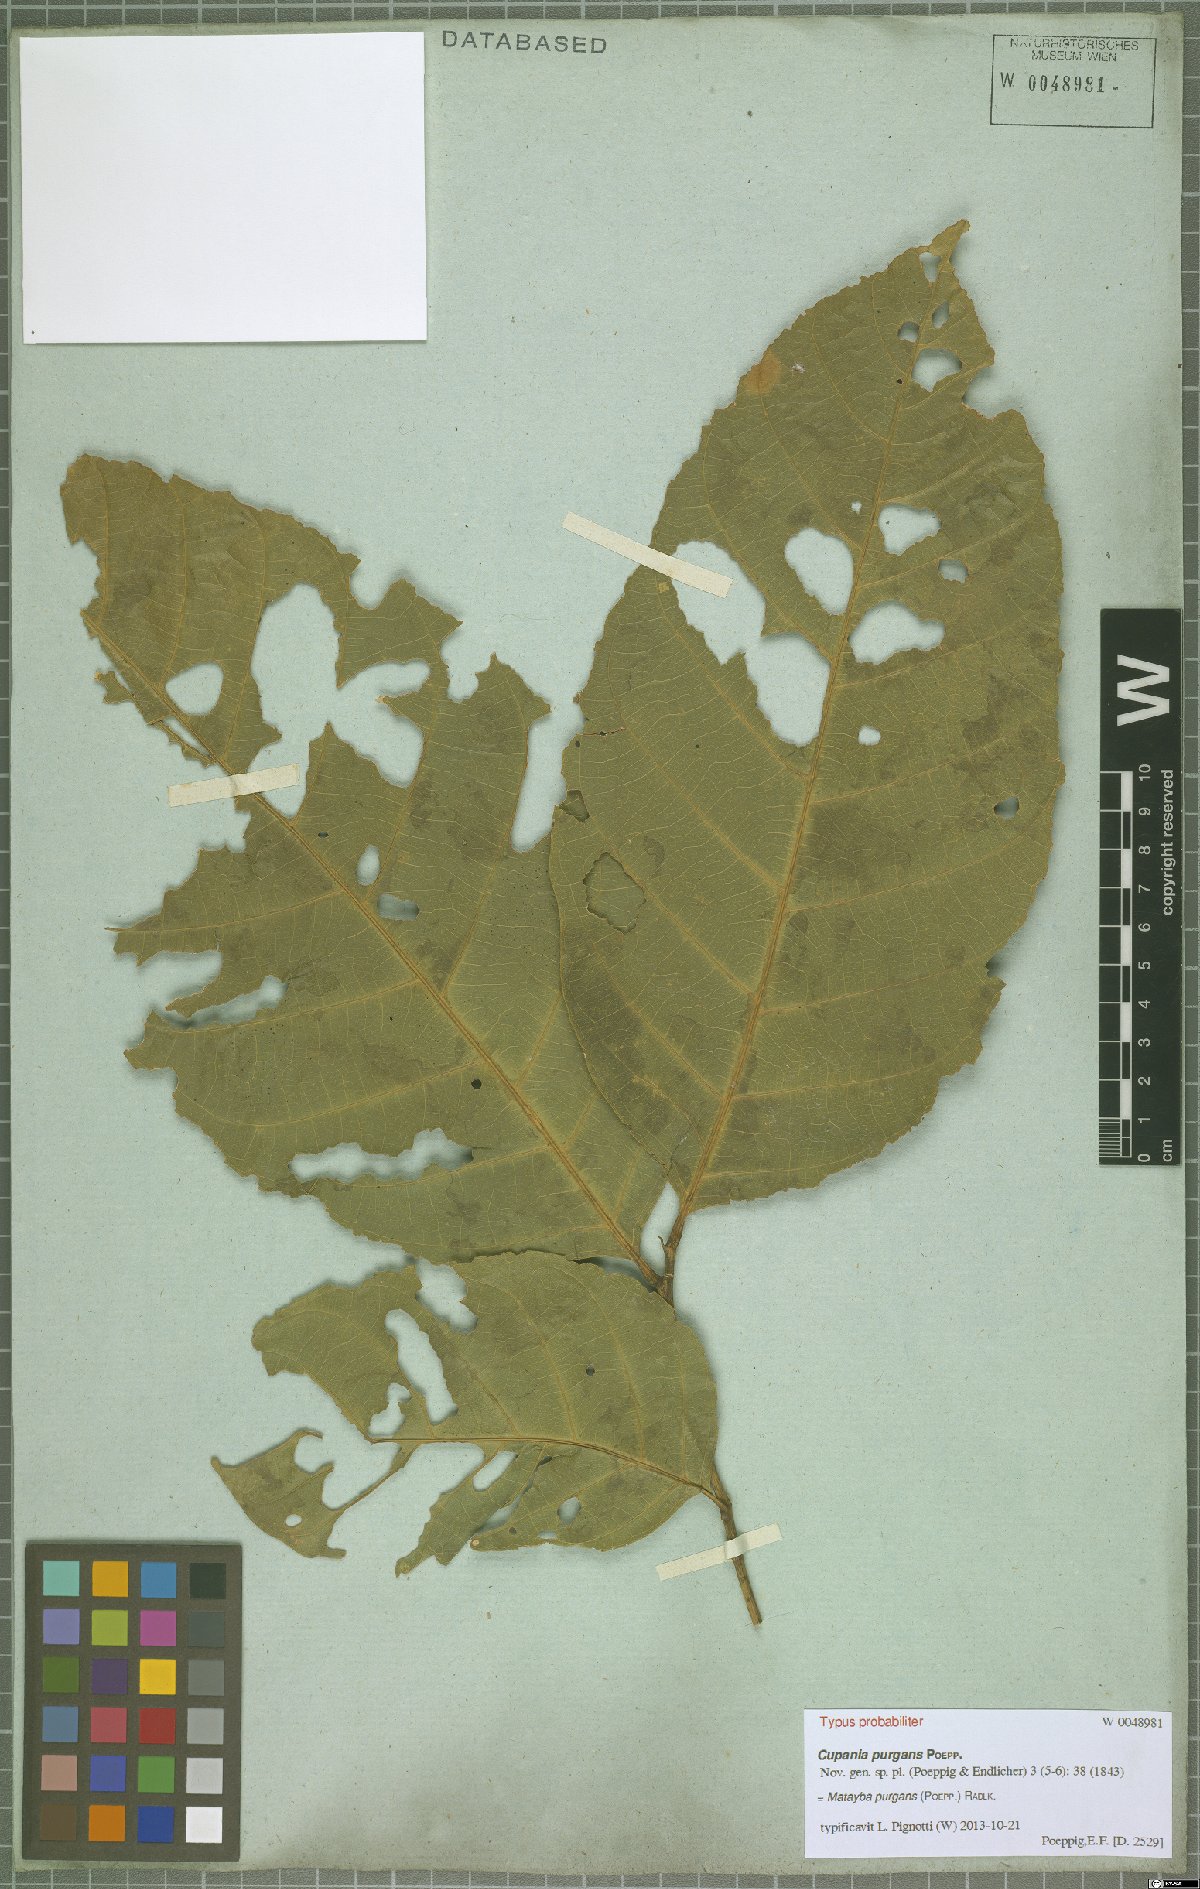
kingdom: Plantae
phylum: Tracheophyta
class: Magnoliopsida
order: Sapindales
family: Sapindaceae
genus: Matayba
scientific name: Matayba purgans
